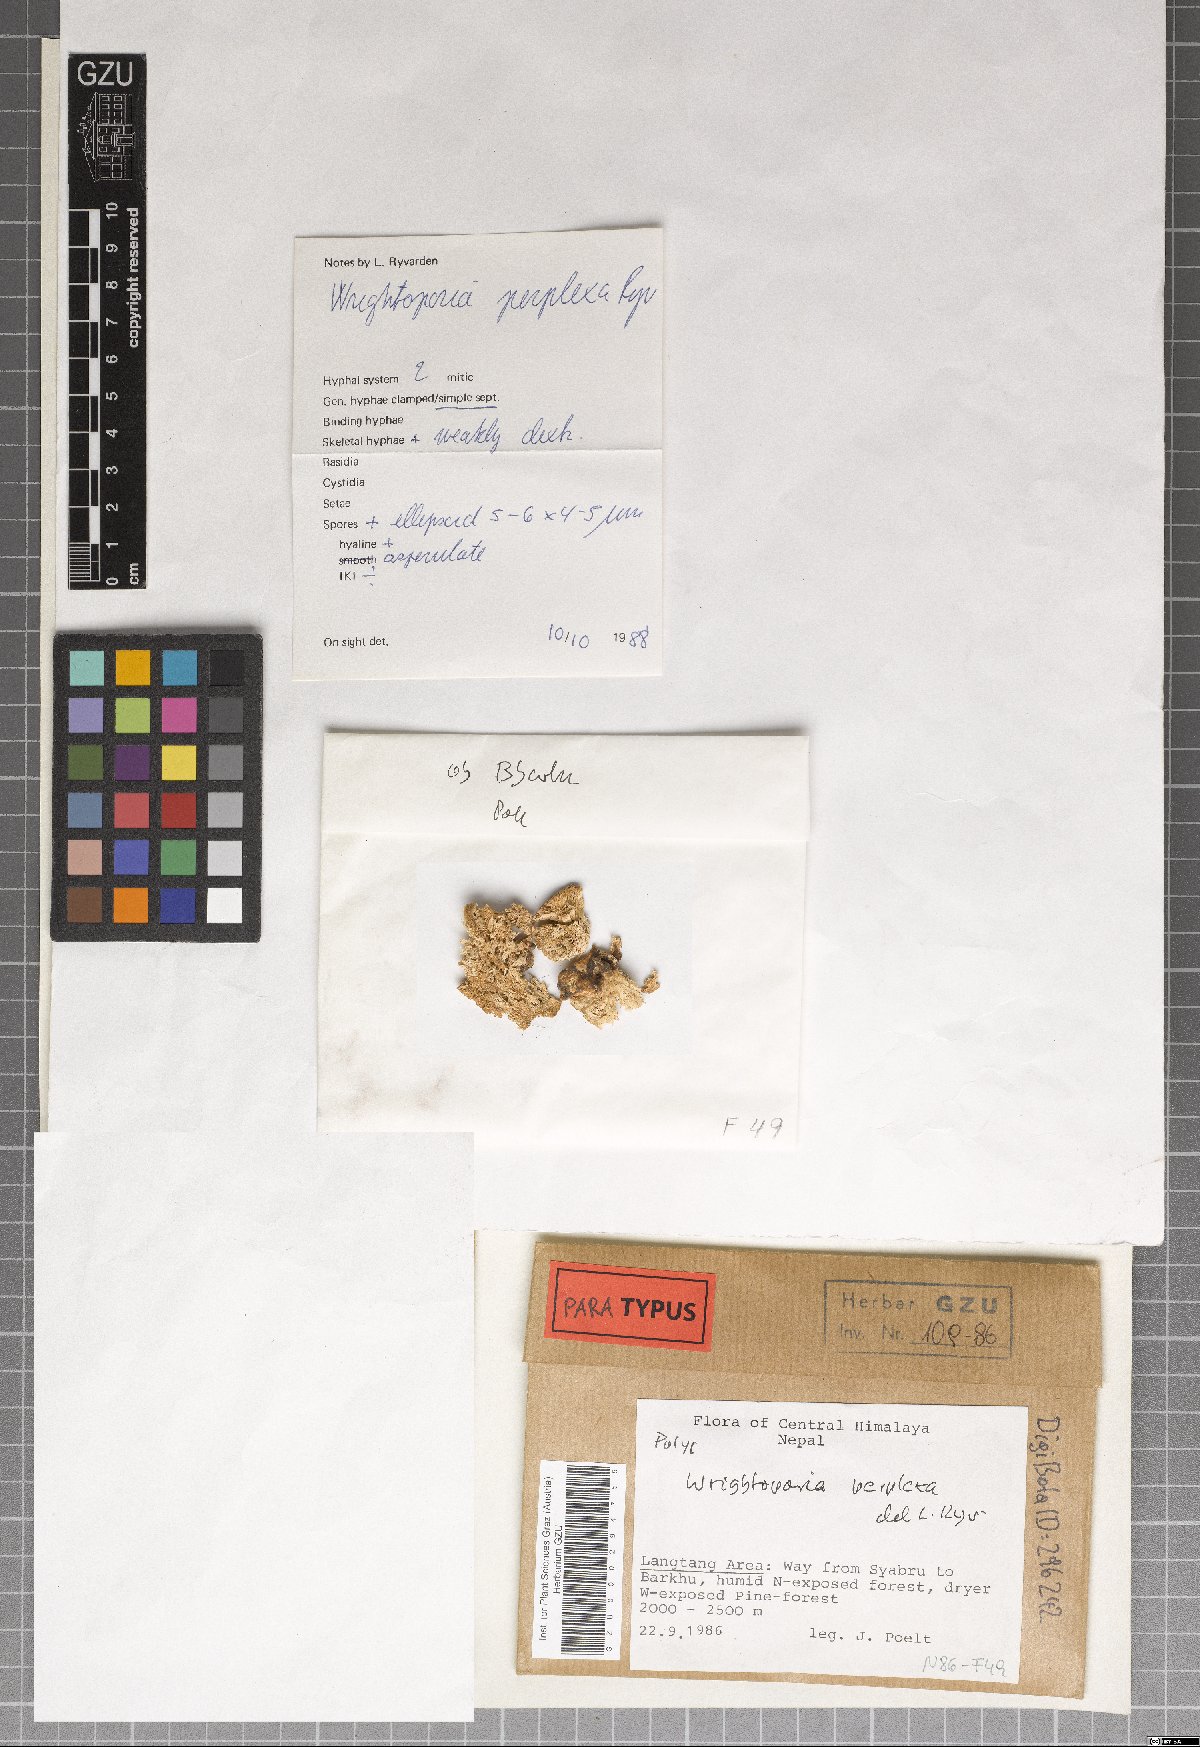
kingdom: Fungi
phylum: Basidiomycota
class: Agaricomycetes
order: Russulales
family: Bondarzewiaceae
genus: Wrightoporia
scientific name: Wrightoporia perplexa
